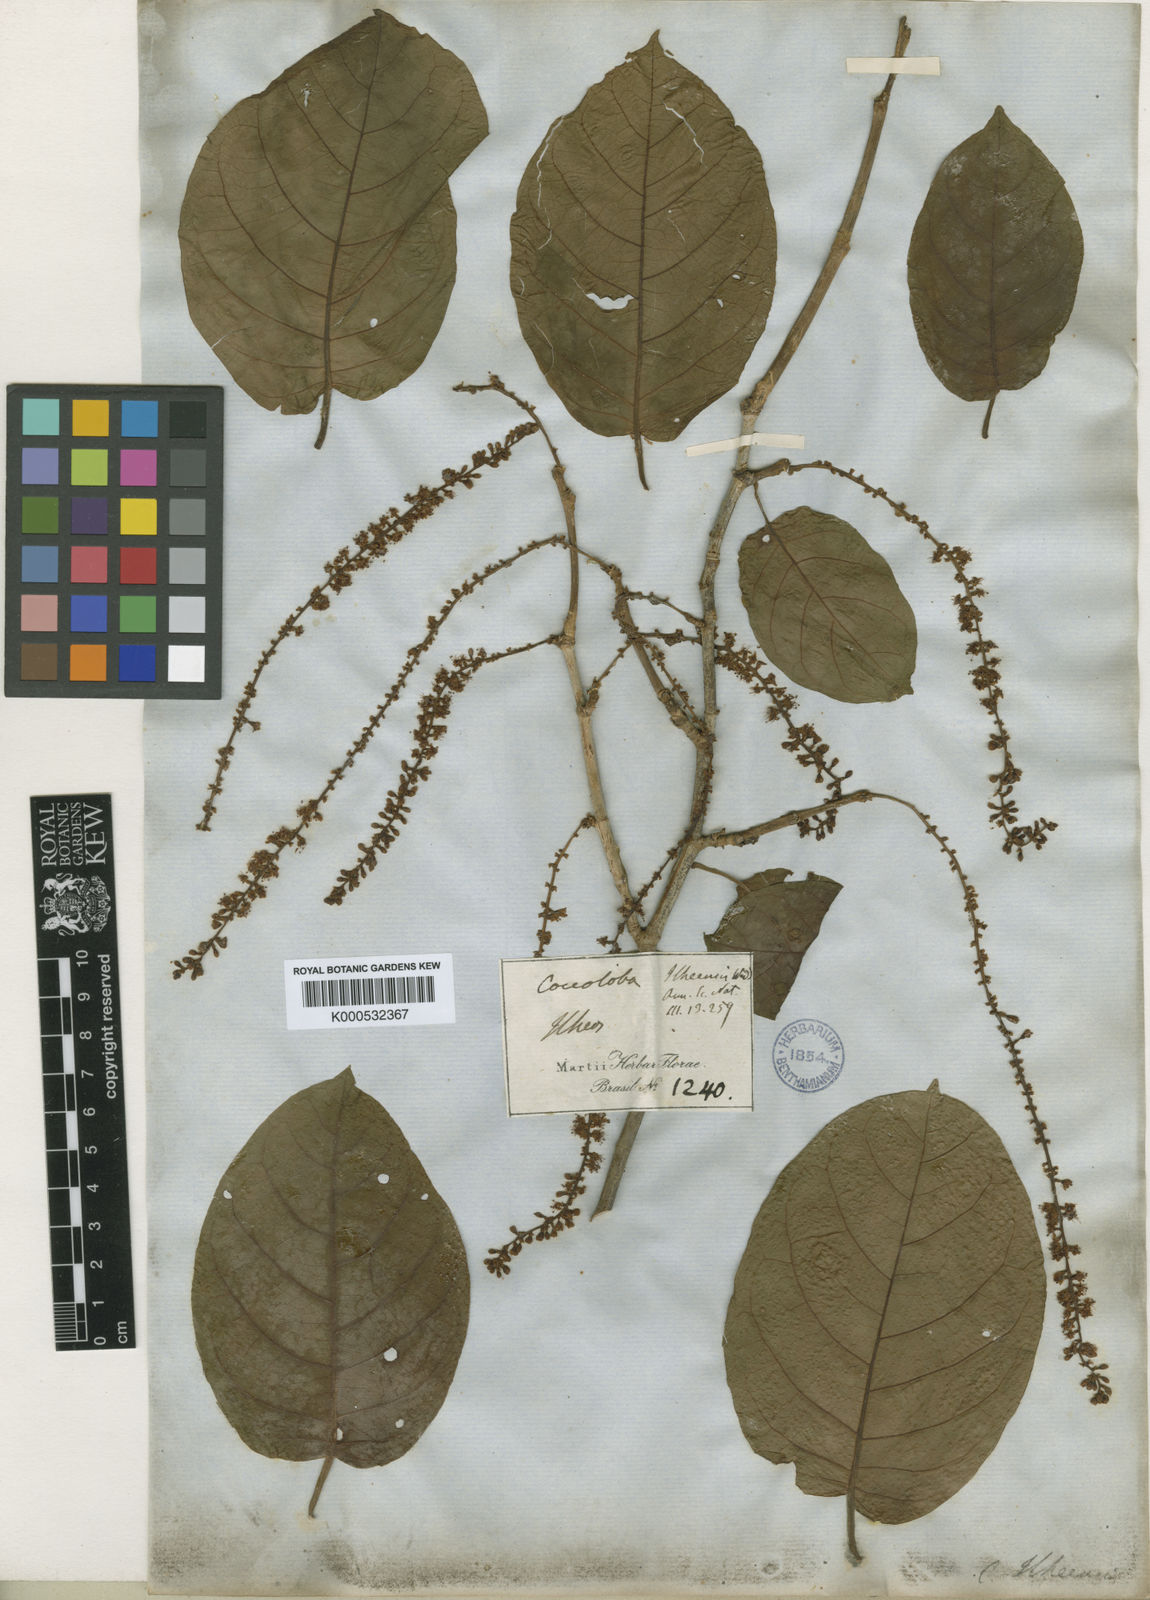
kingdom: Plantae
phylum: Tracheophyta
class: Magnoliopsida
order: Caryophyllales
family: Polygonaceae
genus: Coccoloba
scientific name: Coccoloba declinata
